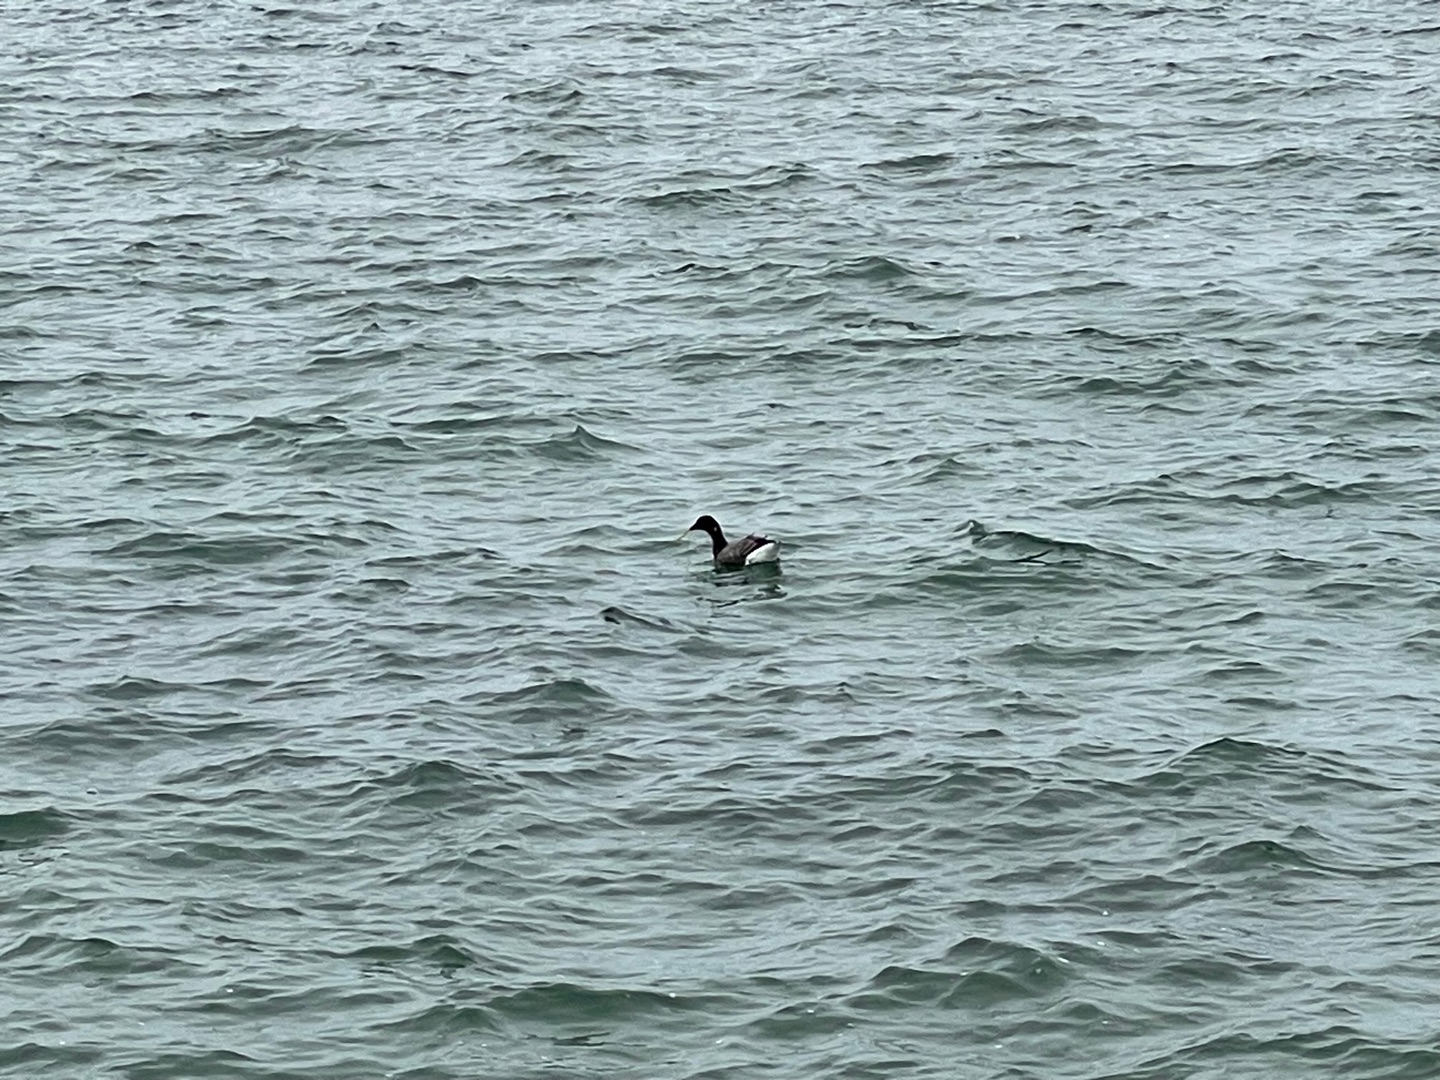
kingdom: Animalia
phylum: Chordata
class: Aves
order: Anseriformes
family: Anatidae
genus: Branta
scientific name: Branta bernicla
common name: Knortegås
